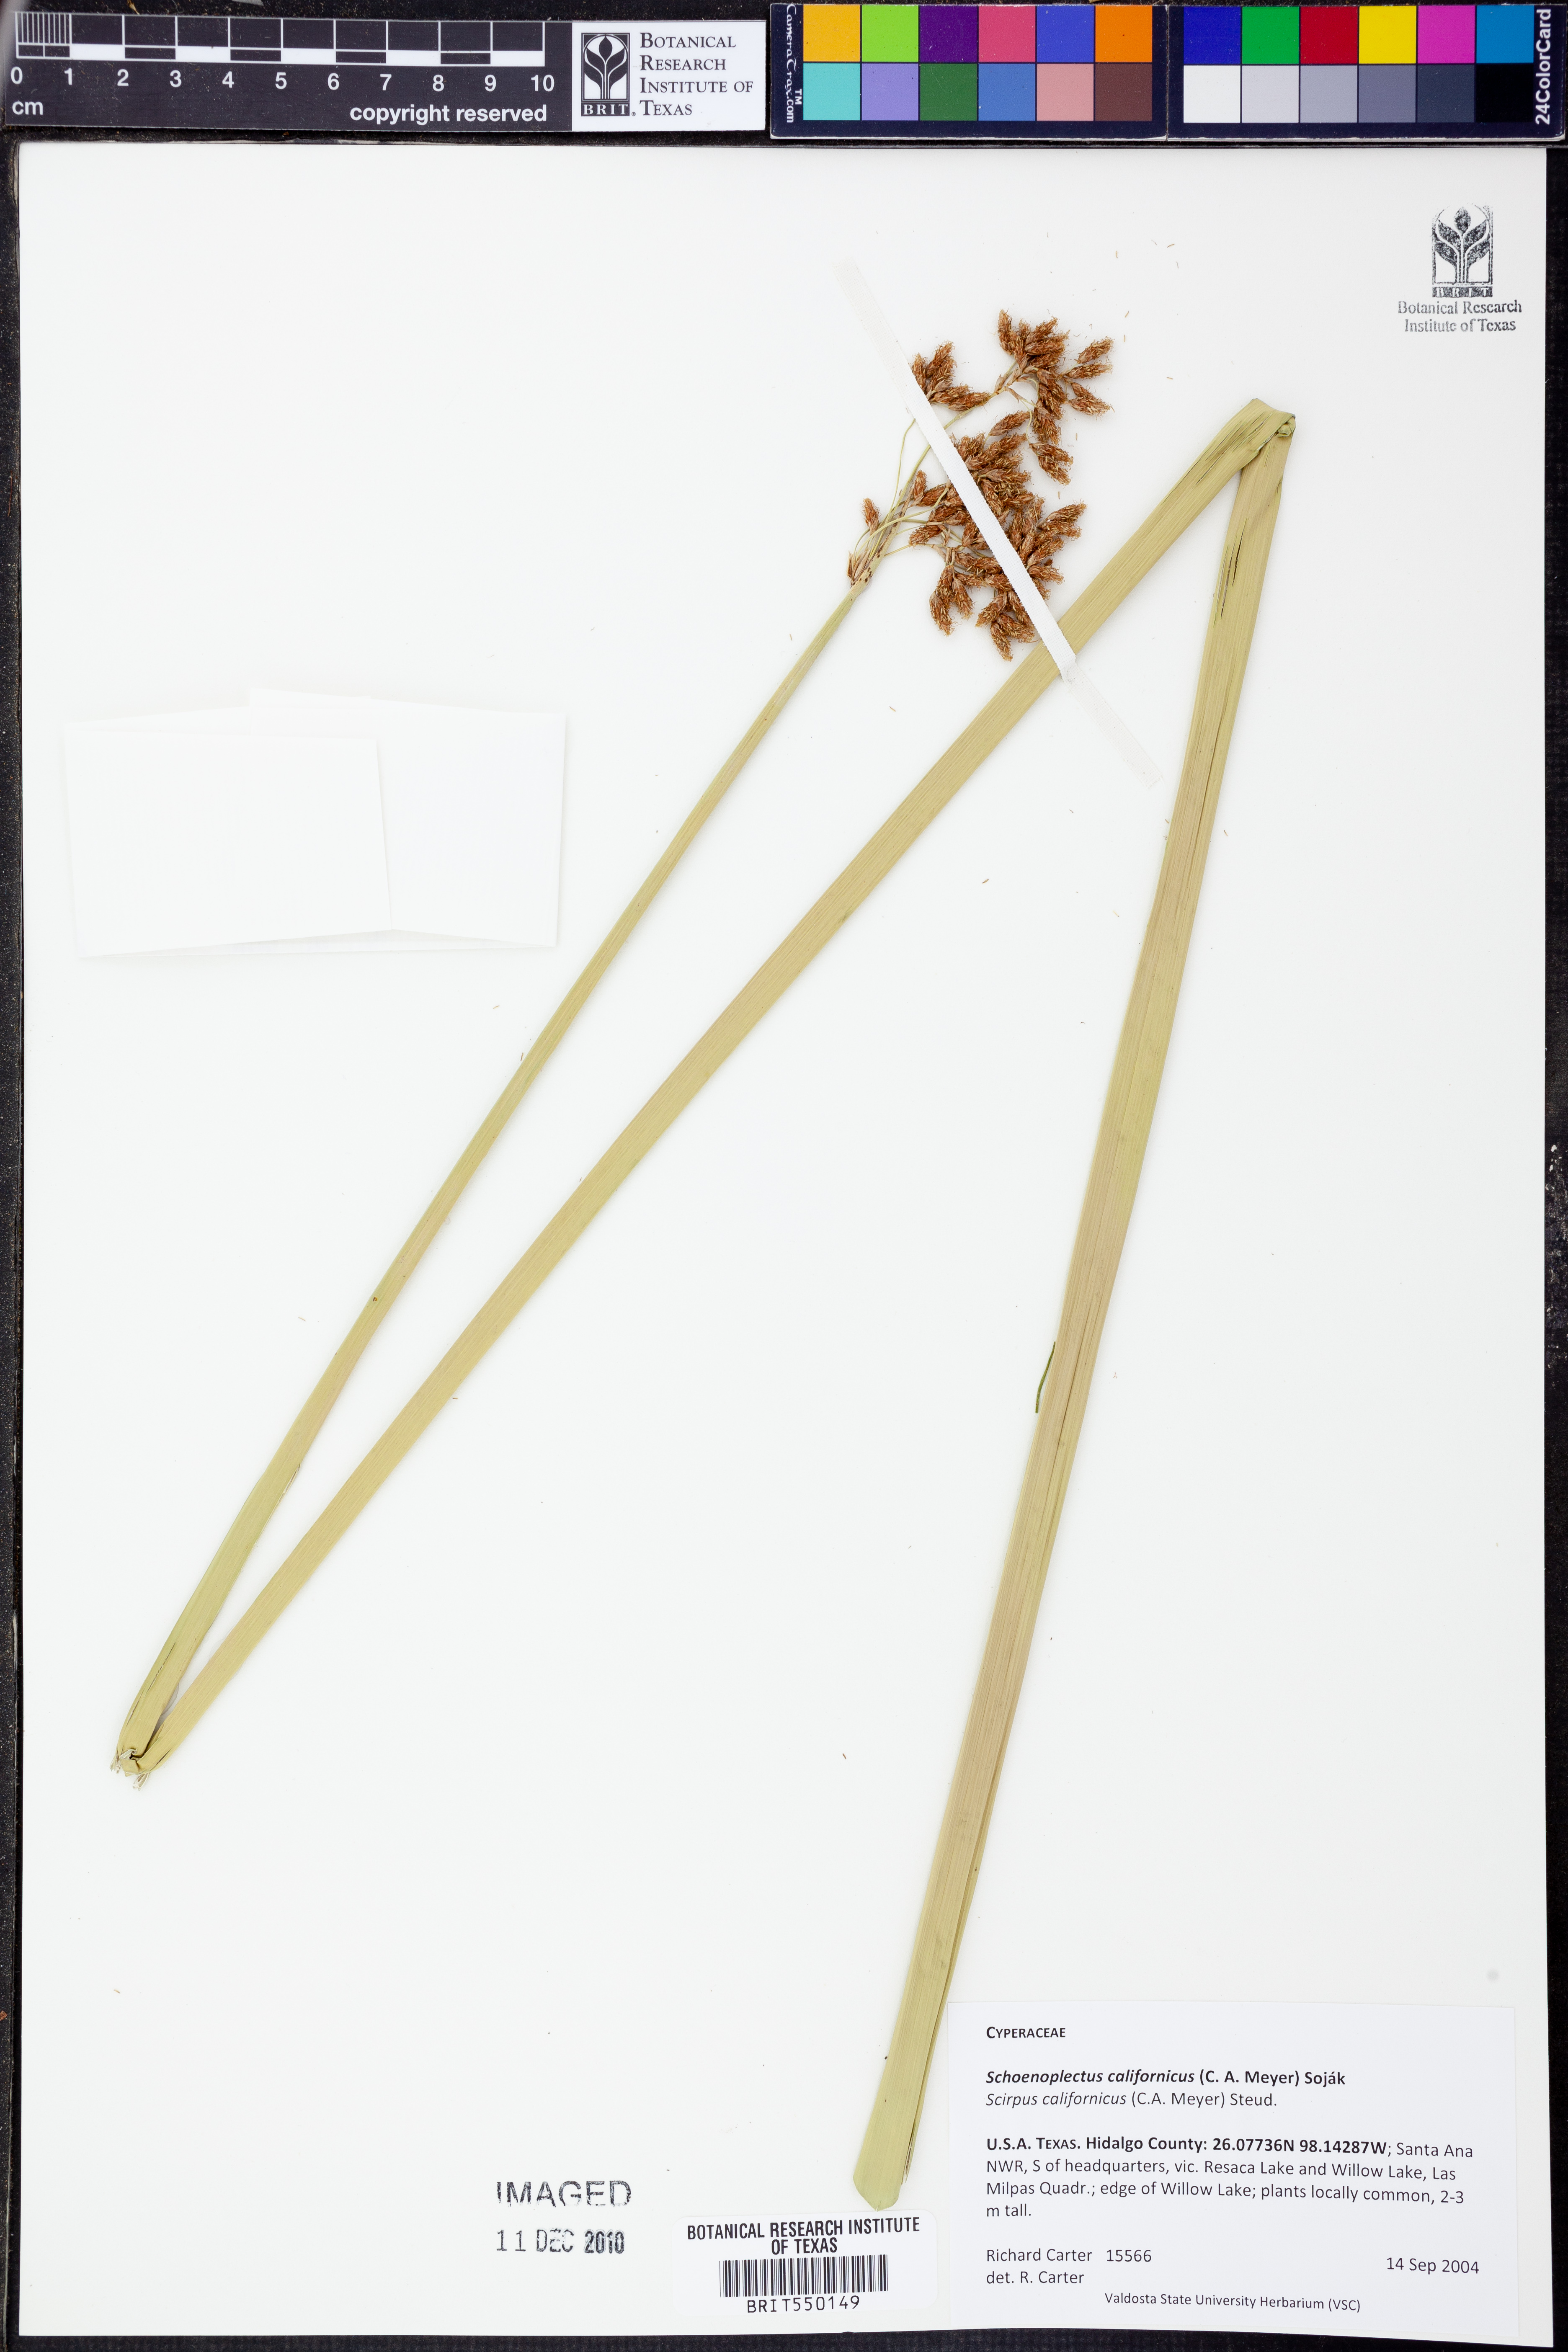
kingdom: Plantae
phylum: Tracheophyta
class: Liliopsida
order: Poales
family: Cyperaceae
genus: Schoenoplectus
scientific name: Schoenoplectus californicus
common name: California bulrush
